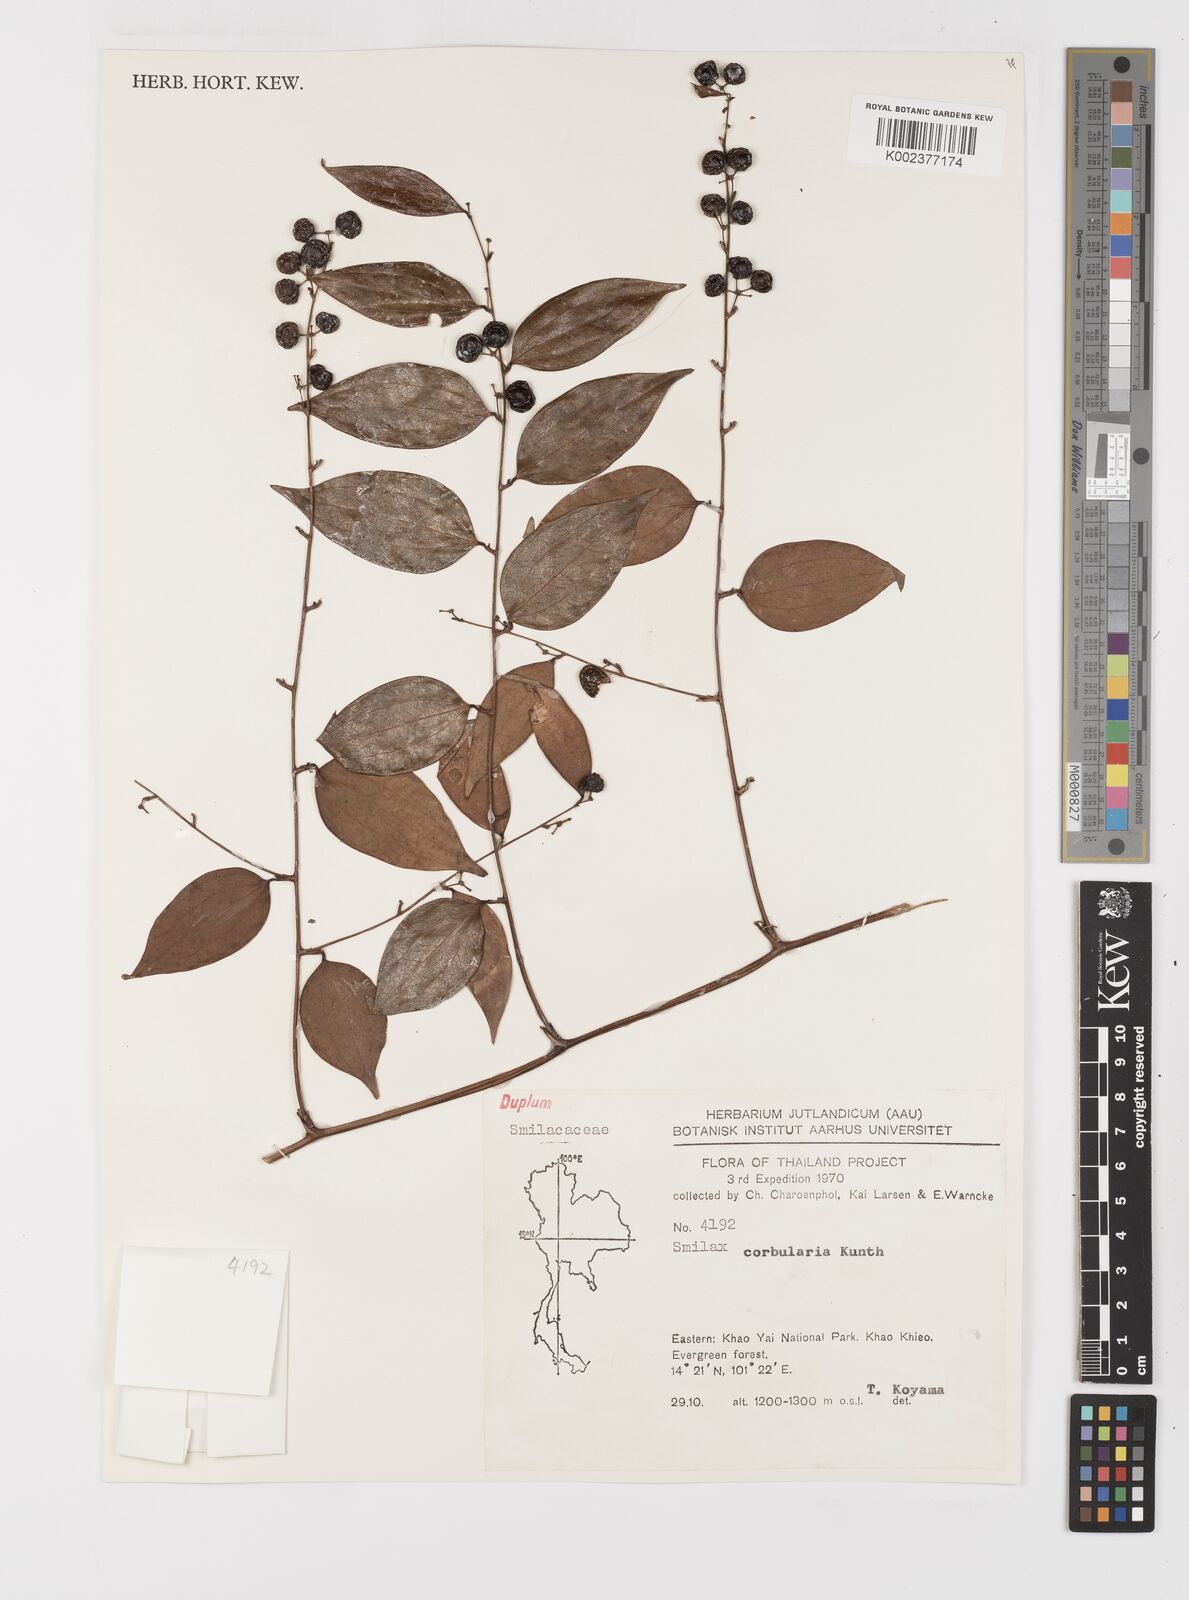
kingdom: Plantae
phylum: Tracheophyta
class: Liliopsida
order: Liliales
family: Smilacaceae
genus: Smilax
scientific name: Smilax corbularia
